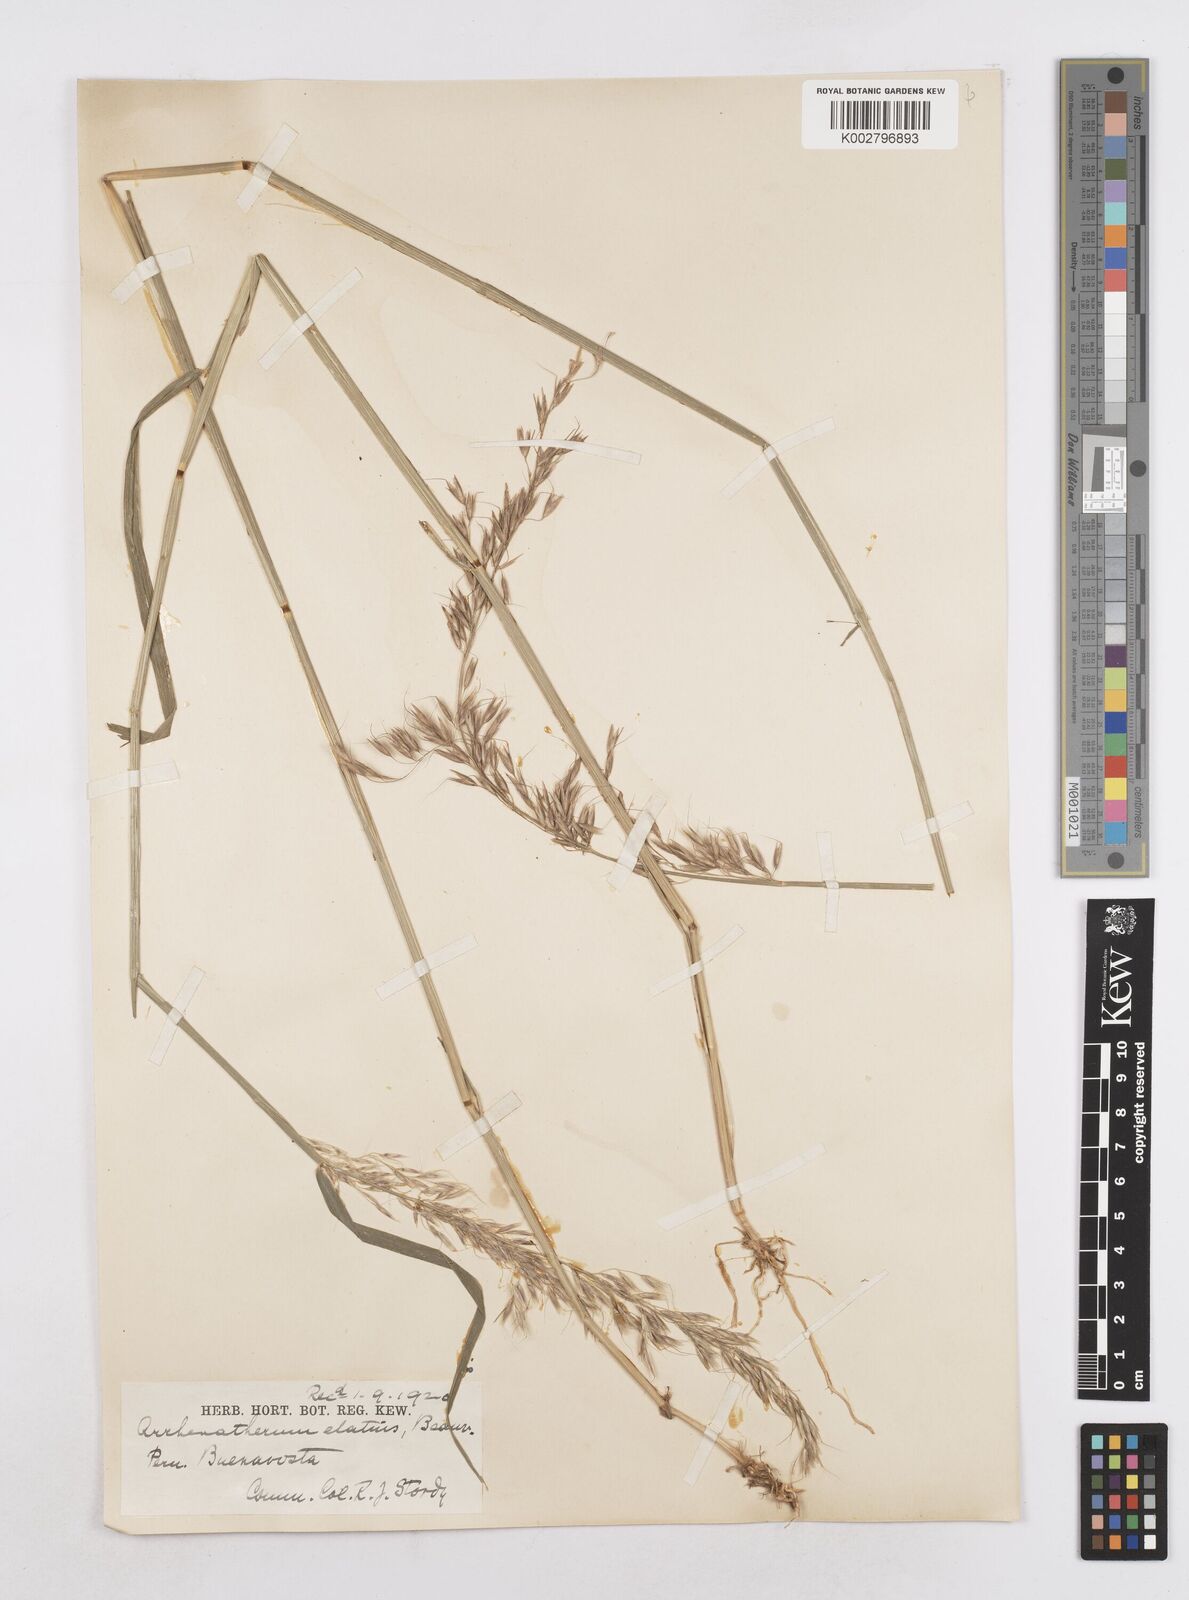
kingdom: Plantae
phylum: Tracheophyta
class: Liliopsida
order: Poales
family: Poaceae
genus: Arrhenatherum
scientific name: Arrhenatherum elatius
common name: Tall oatgrass
